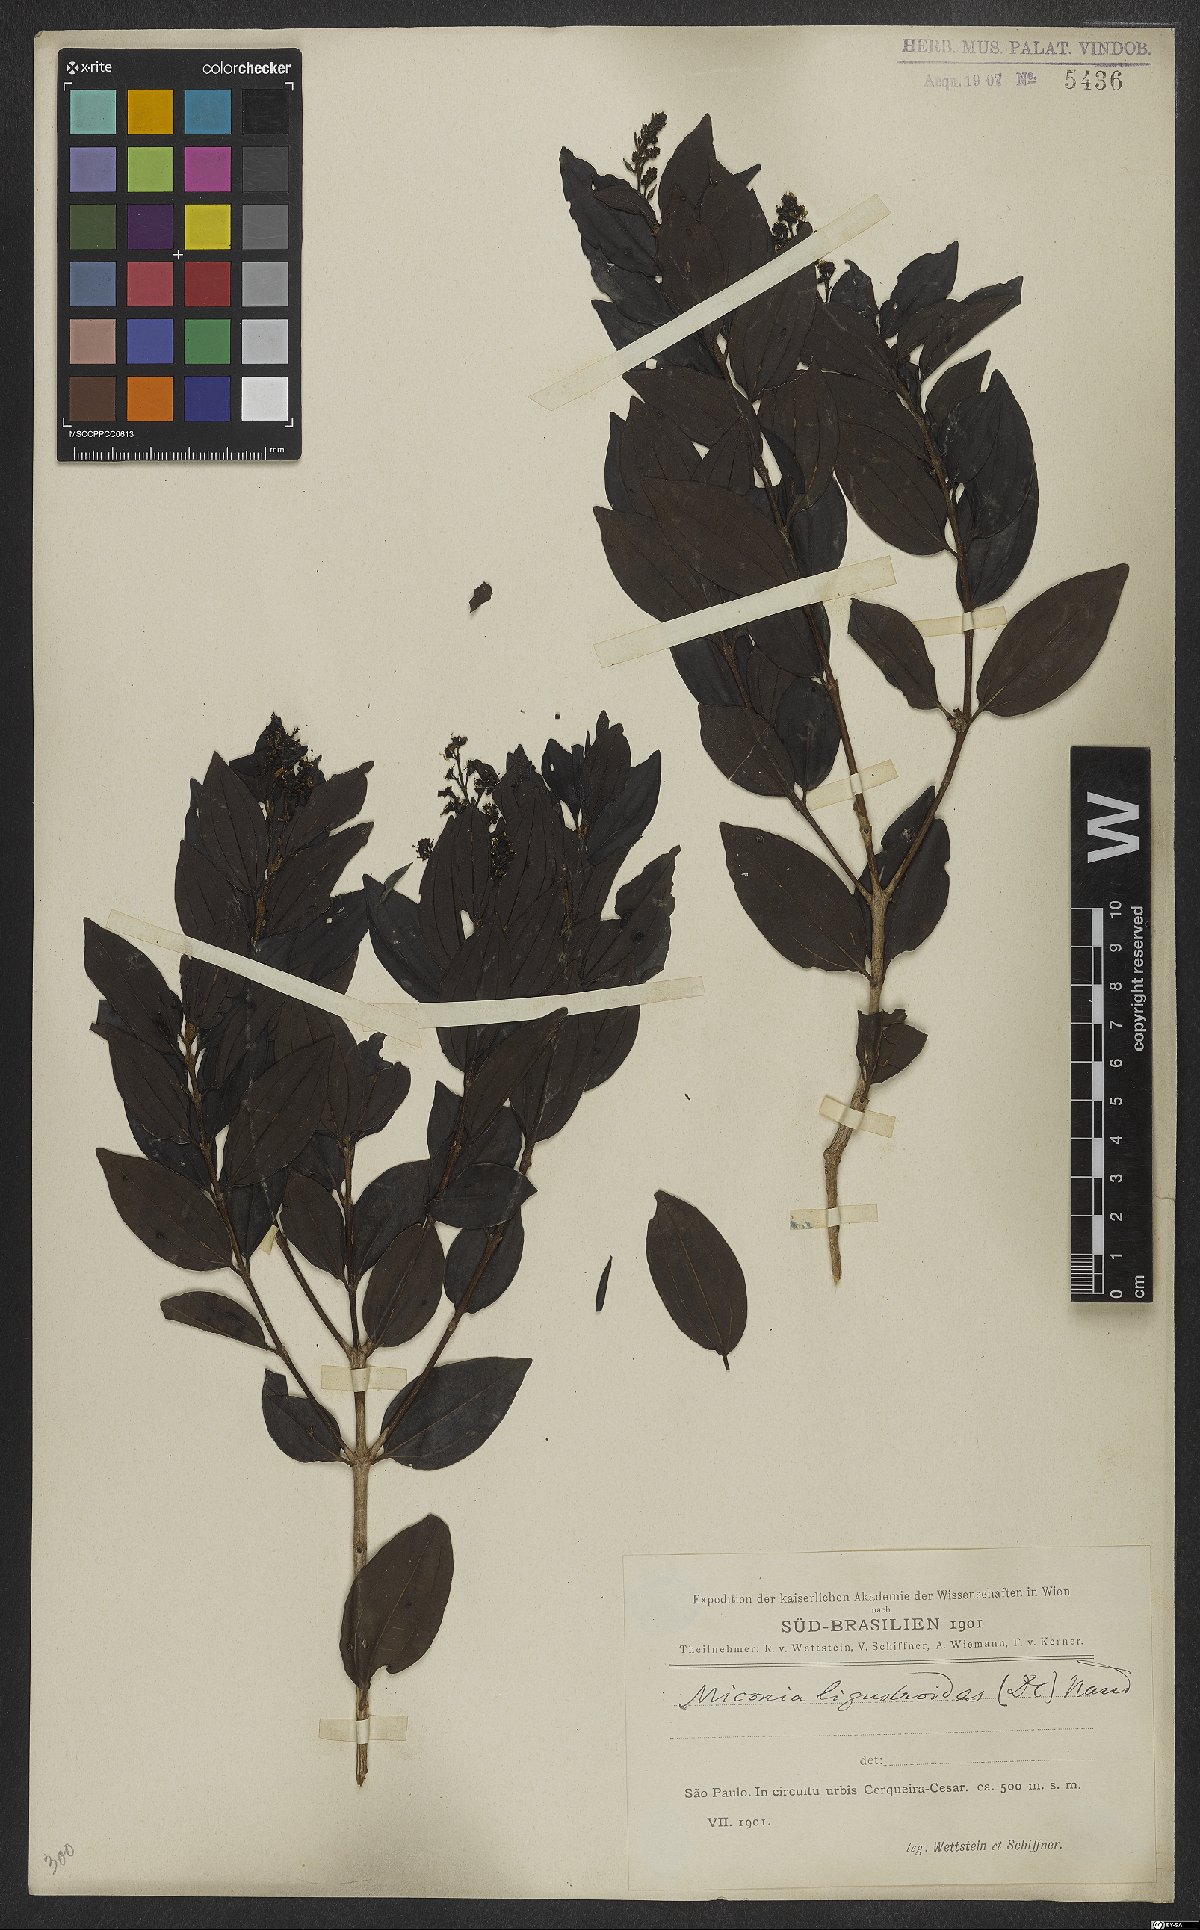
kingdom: Plantae
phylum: Tracheophyta
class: Magnoliopsida
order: Myrtales
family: Melastomataceae
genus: Miconia
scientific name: Miconia ligustroides
